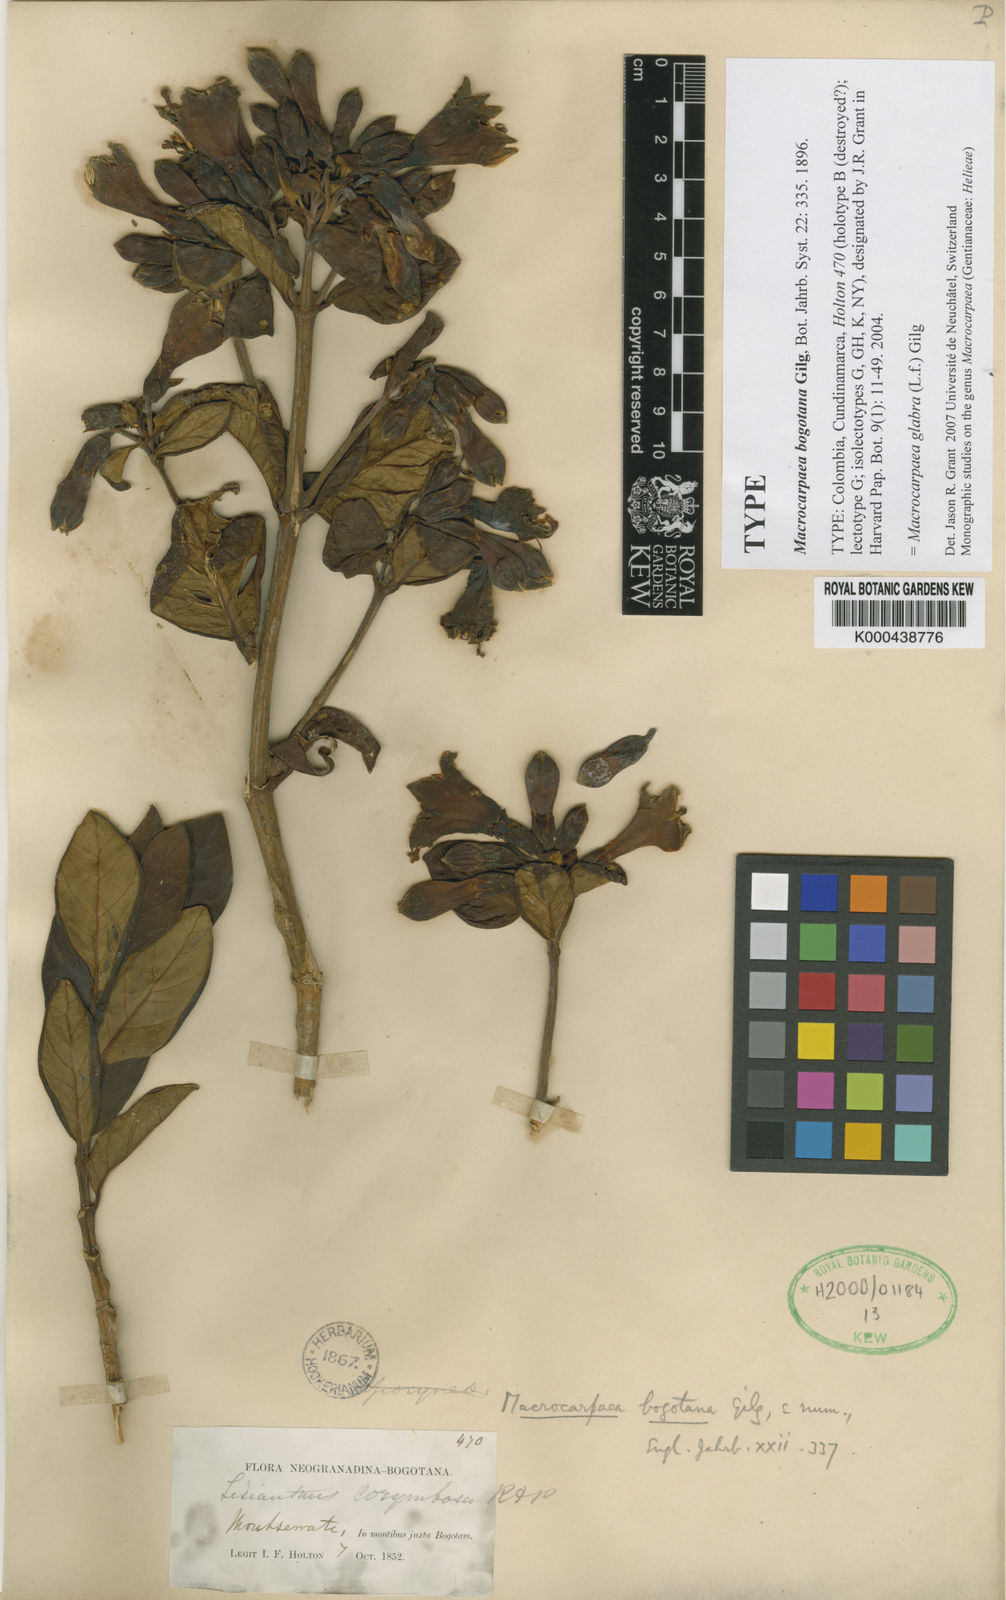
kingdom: Plantae
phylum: Tracheophyta
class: Magnoliopsida
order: Gentianales
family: Gentianaceae
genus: Macrocarpaea
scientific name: Macrocarpaea glabra
